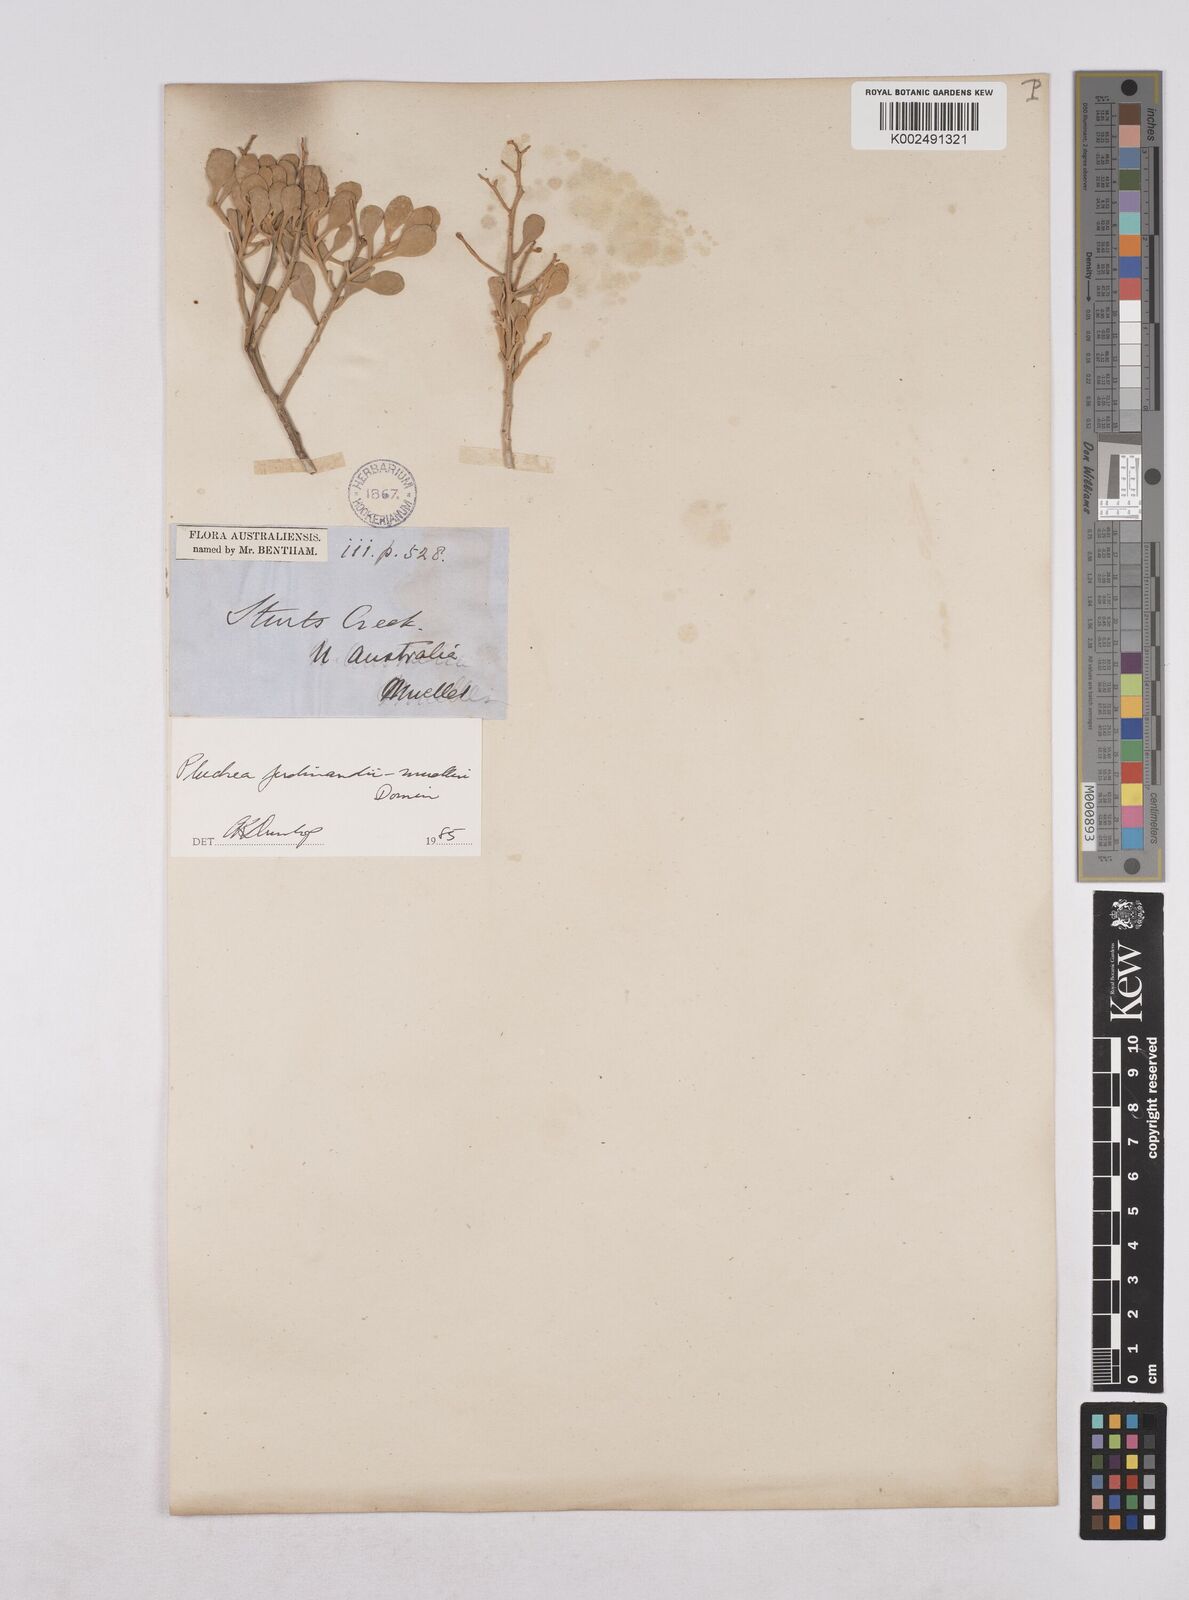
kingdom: Plantae
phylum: Tracheophyta
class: Magnoliopsida
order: Asterales
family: Asteraceae
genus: Pluchea
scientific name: Pluchea ferdinandi-muelleri
